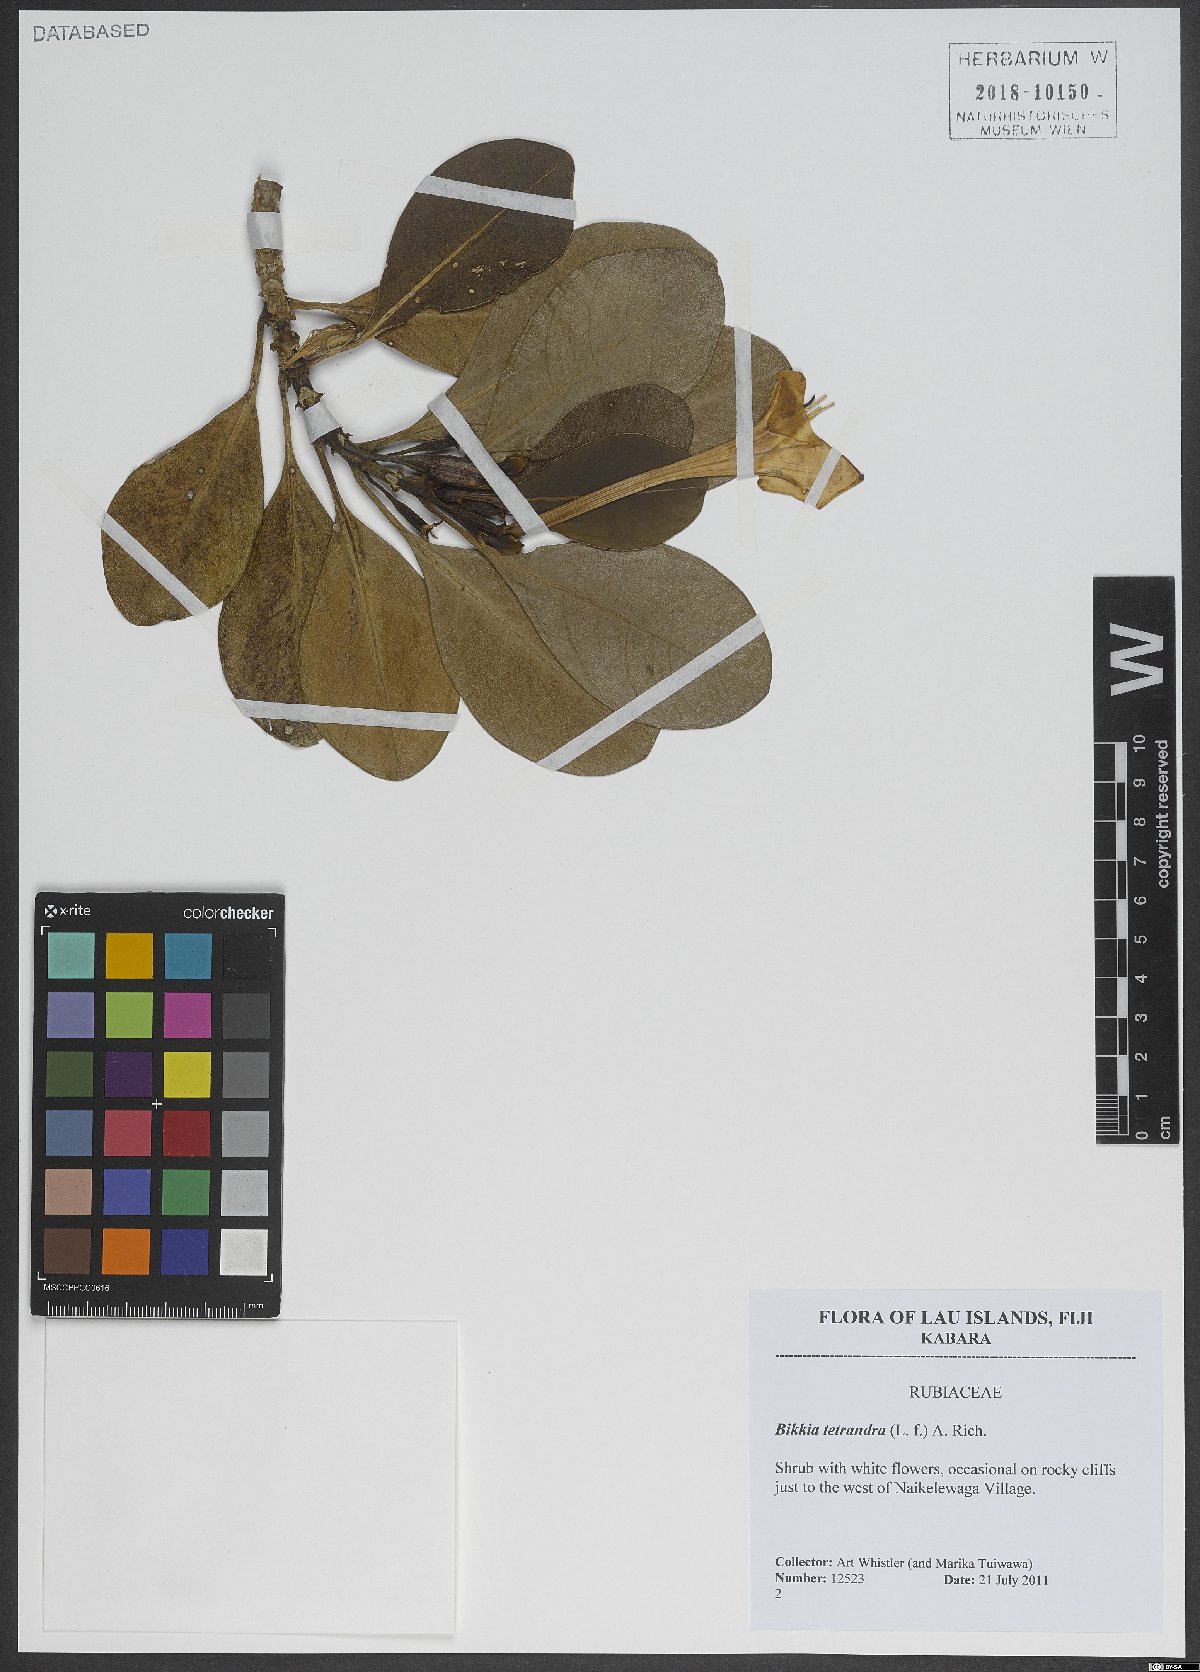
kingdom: Plantae
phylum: Tracheophyta
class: Magnoliopsida
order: Gentianales
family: Rubiaceae
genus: Bikkia
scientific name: Bikkia tetrandra
